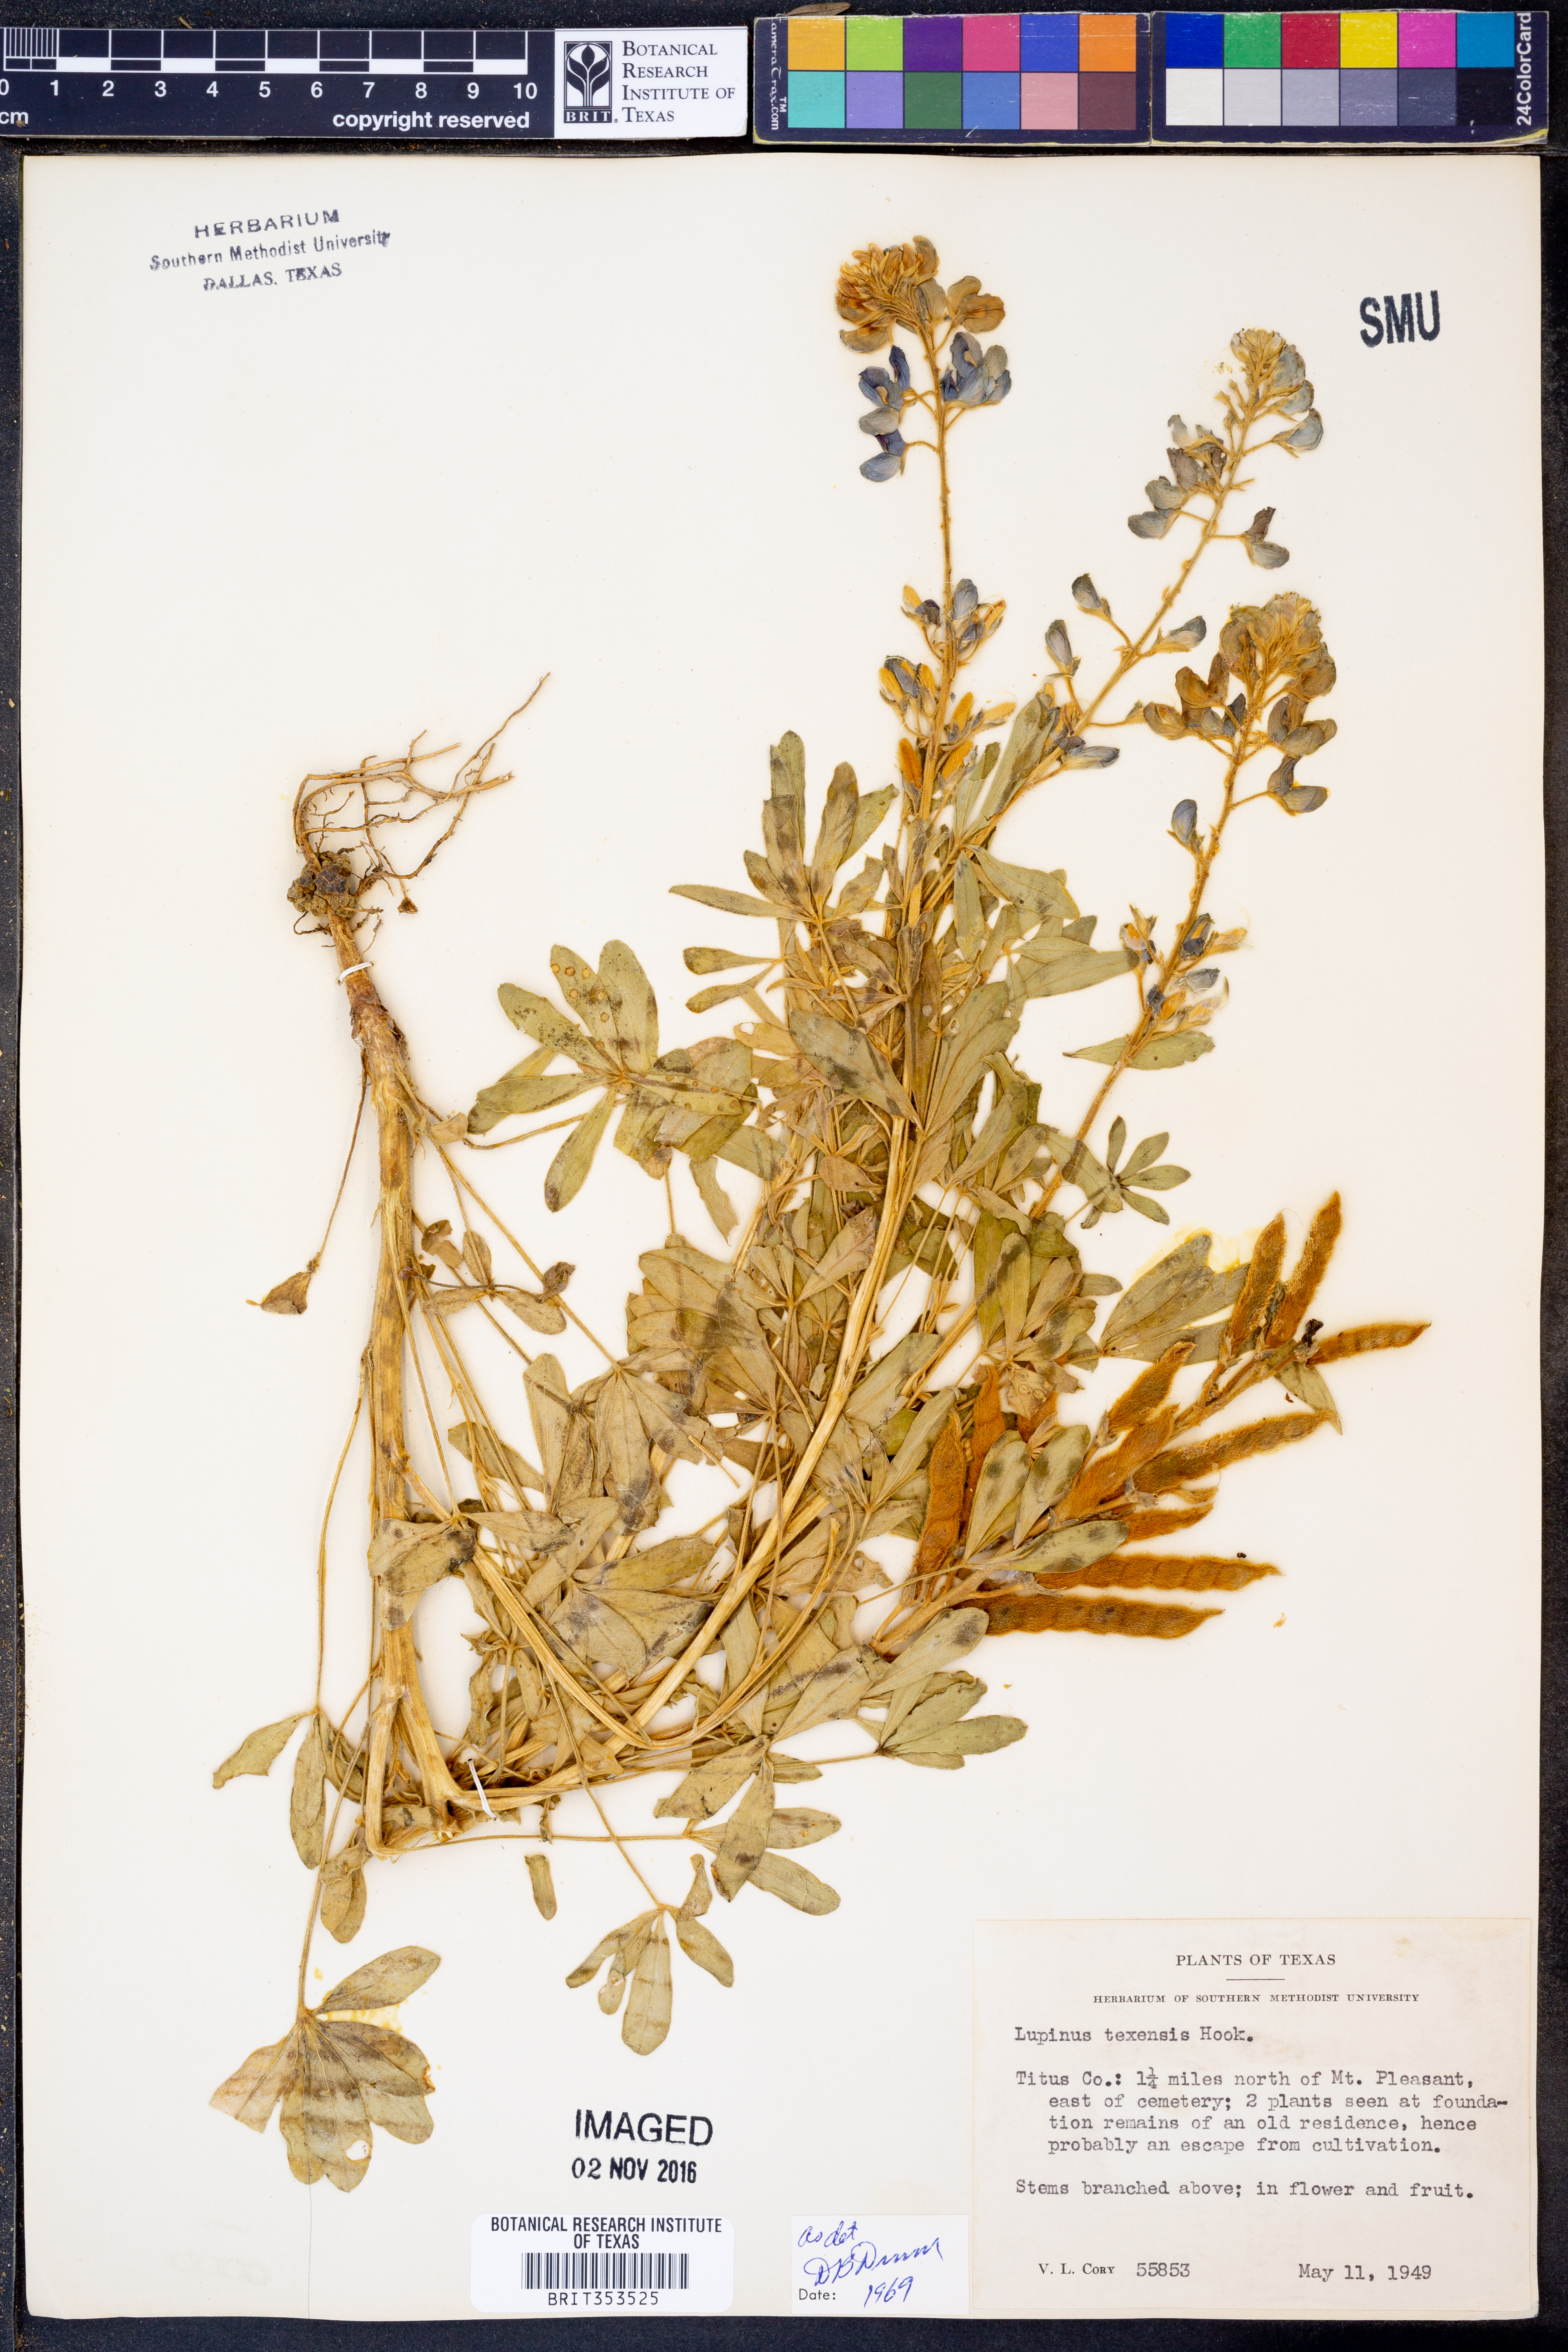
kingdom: Plantae
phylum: Tracheophyta
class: Magnoliopsida
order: Fabales
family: Fabaceae
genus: Lupinus
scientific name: Lupinus texensis
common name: Texas bluebonnet
